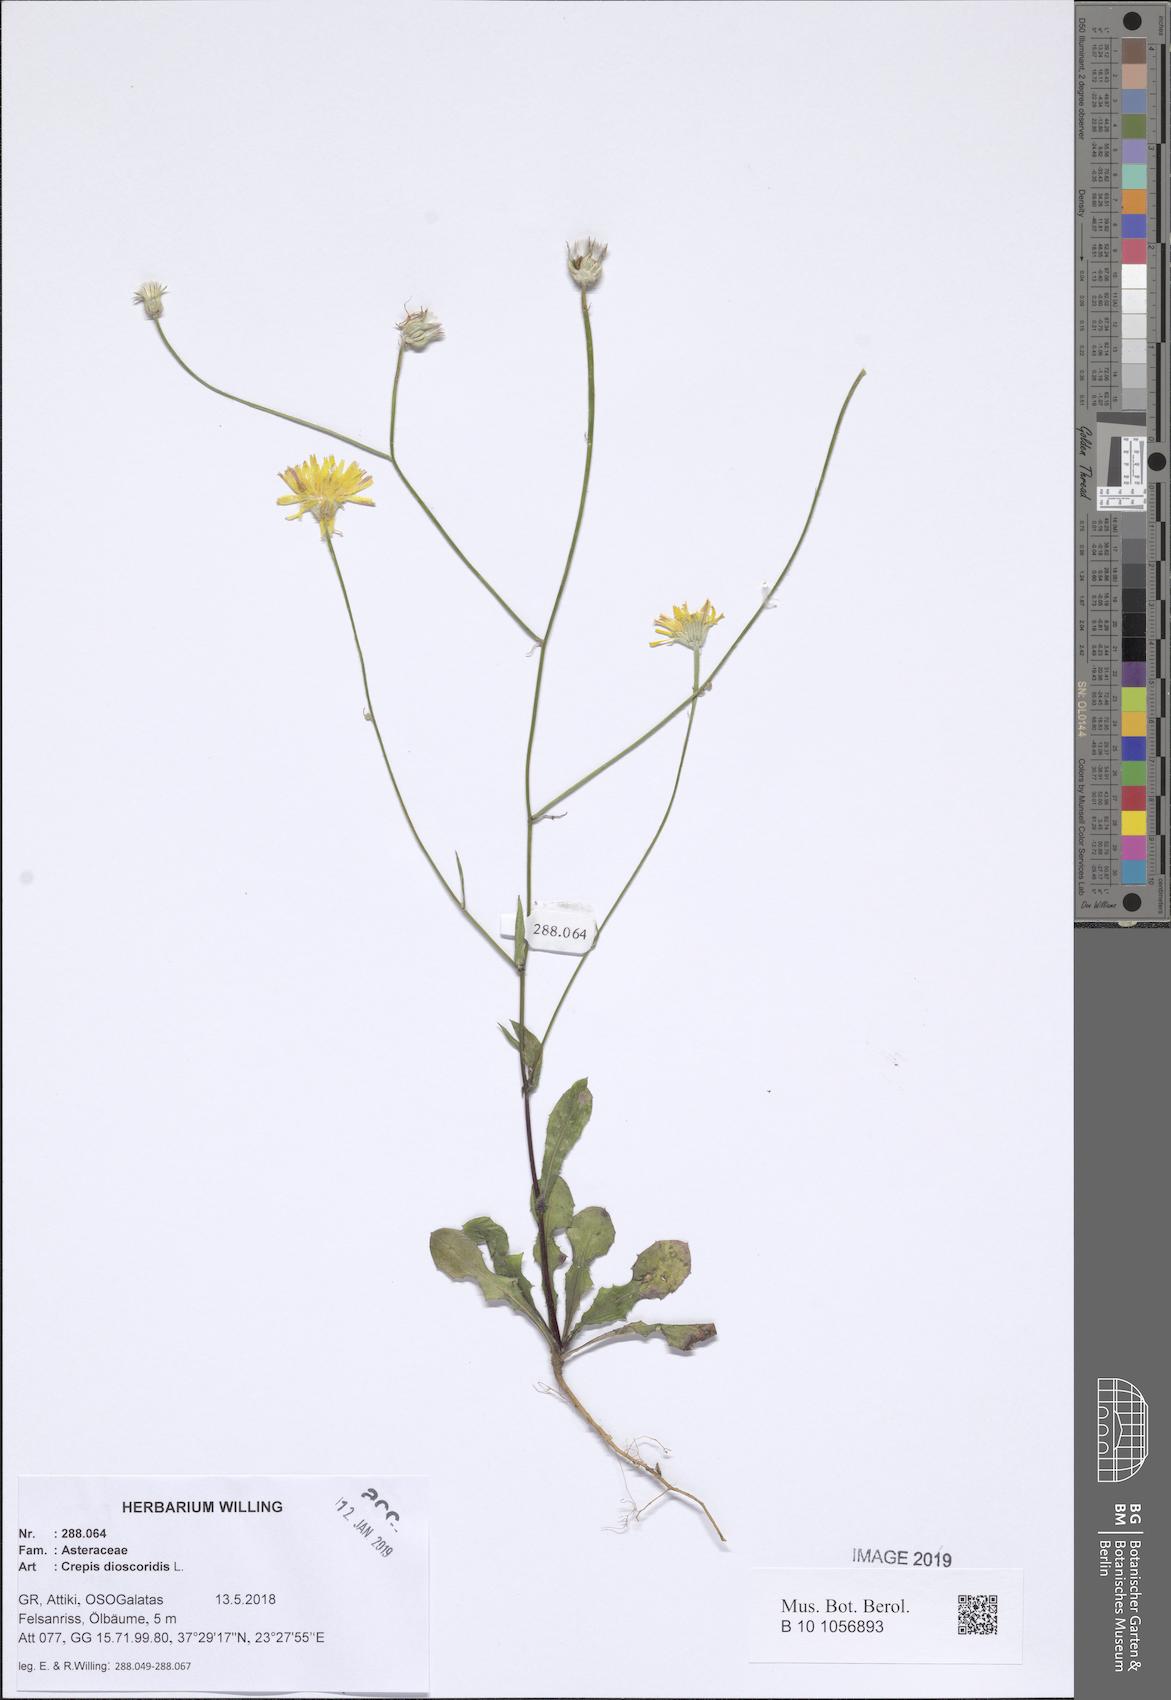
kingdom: Plantae
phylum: Tracheophyta
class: Magnoliopsida
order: Asterales
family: Asteraceae
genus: Crepis
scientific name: Crepis dioscoridis
